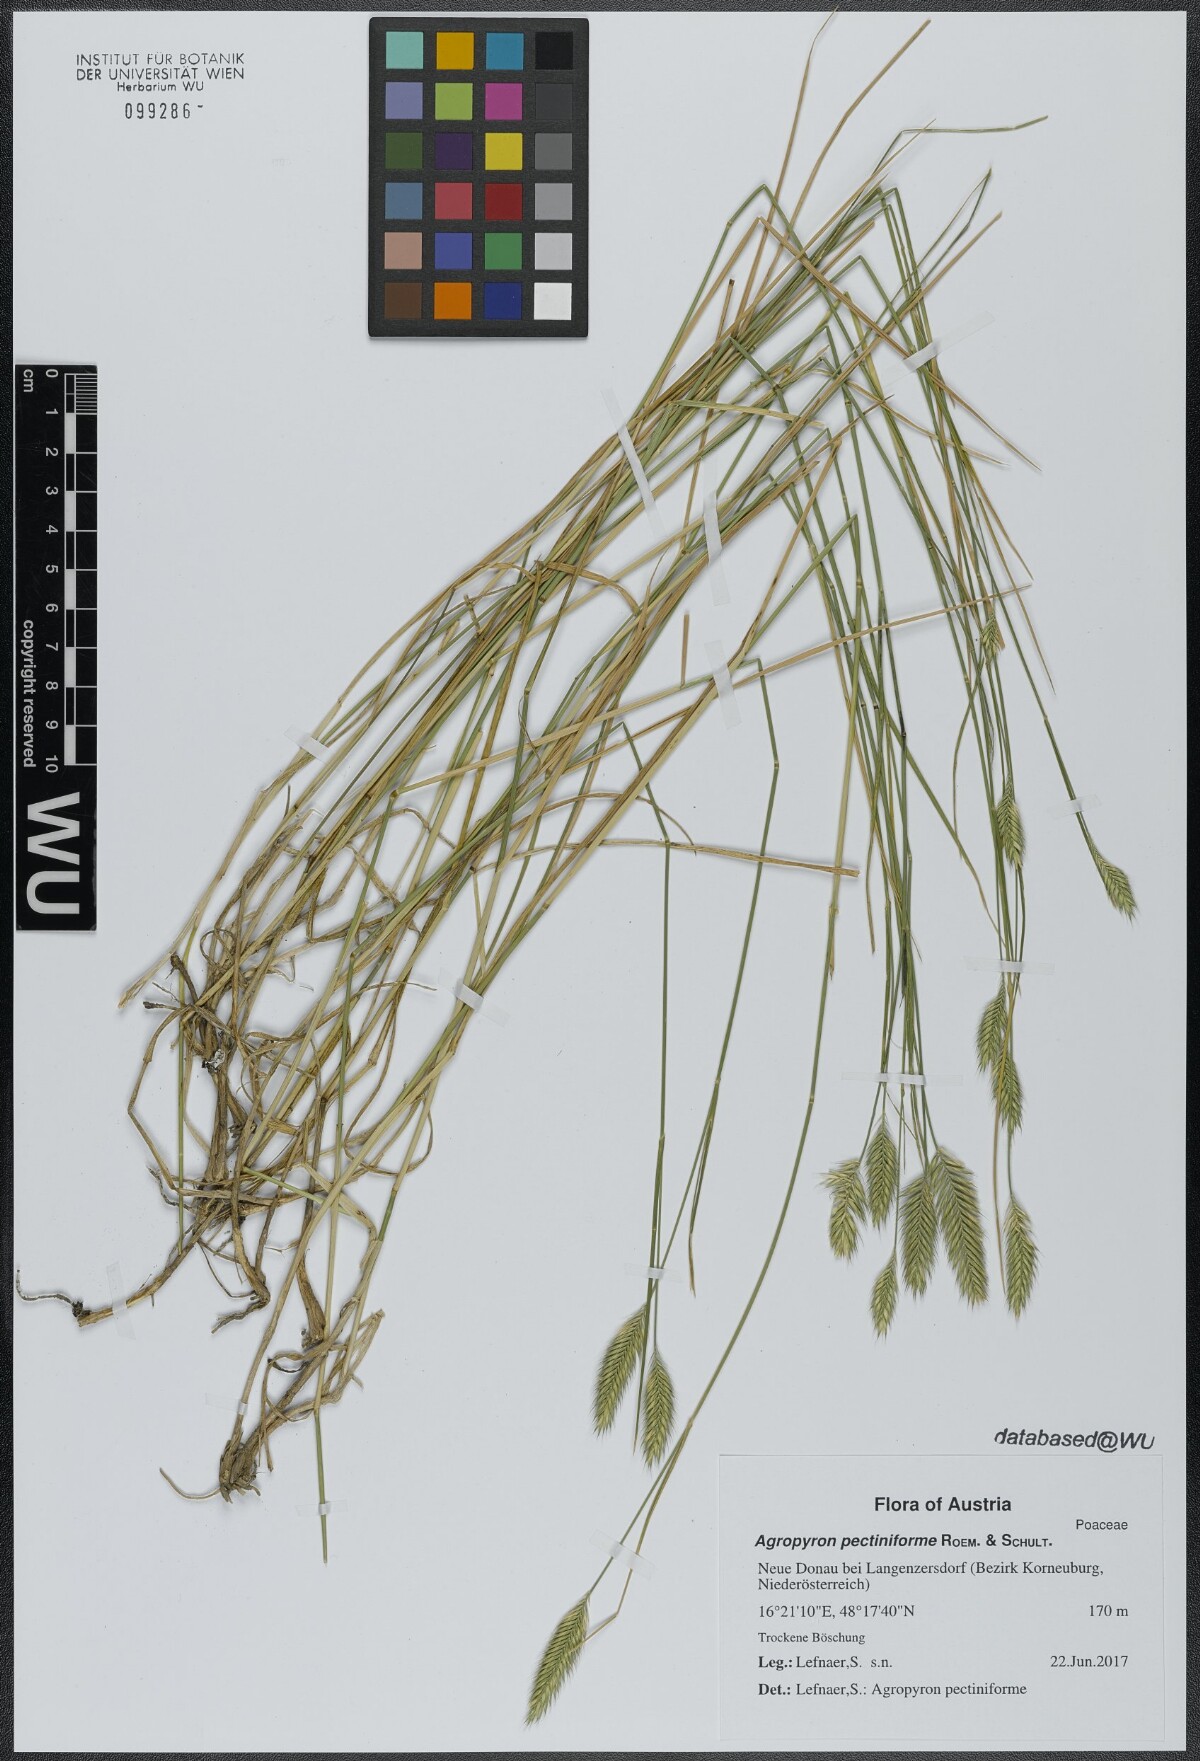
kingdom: Plantae
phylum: Tracheophyta
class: Liliopsida
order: Poales
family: Poaceae
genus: Agropyron
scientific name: Agropyron cristatum
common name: Crested wheatgrass
